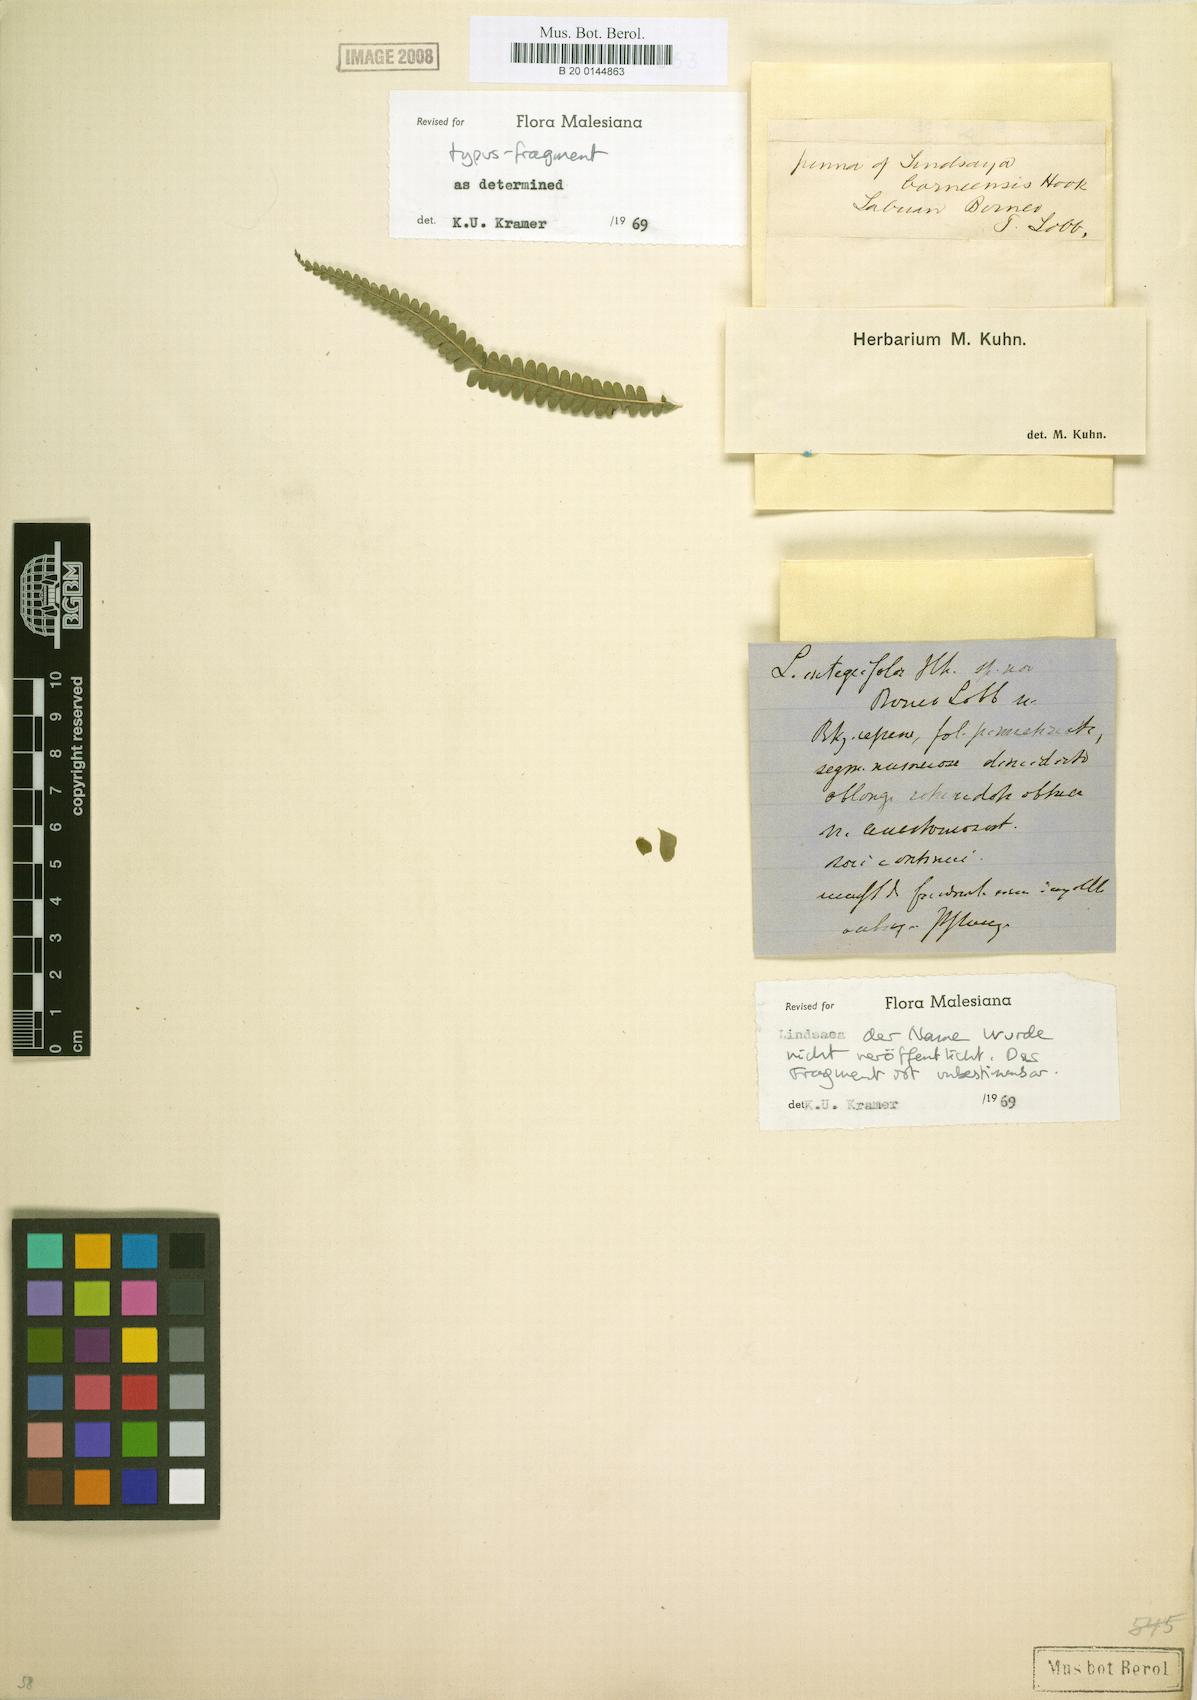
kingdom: Plantae
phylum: Tracheophyta
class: Polypodiopsida
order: Polypodiales
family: Lindsaeaceae
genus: Lindsaea
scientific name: Lindsaea borneensis
